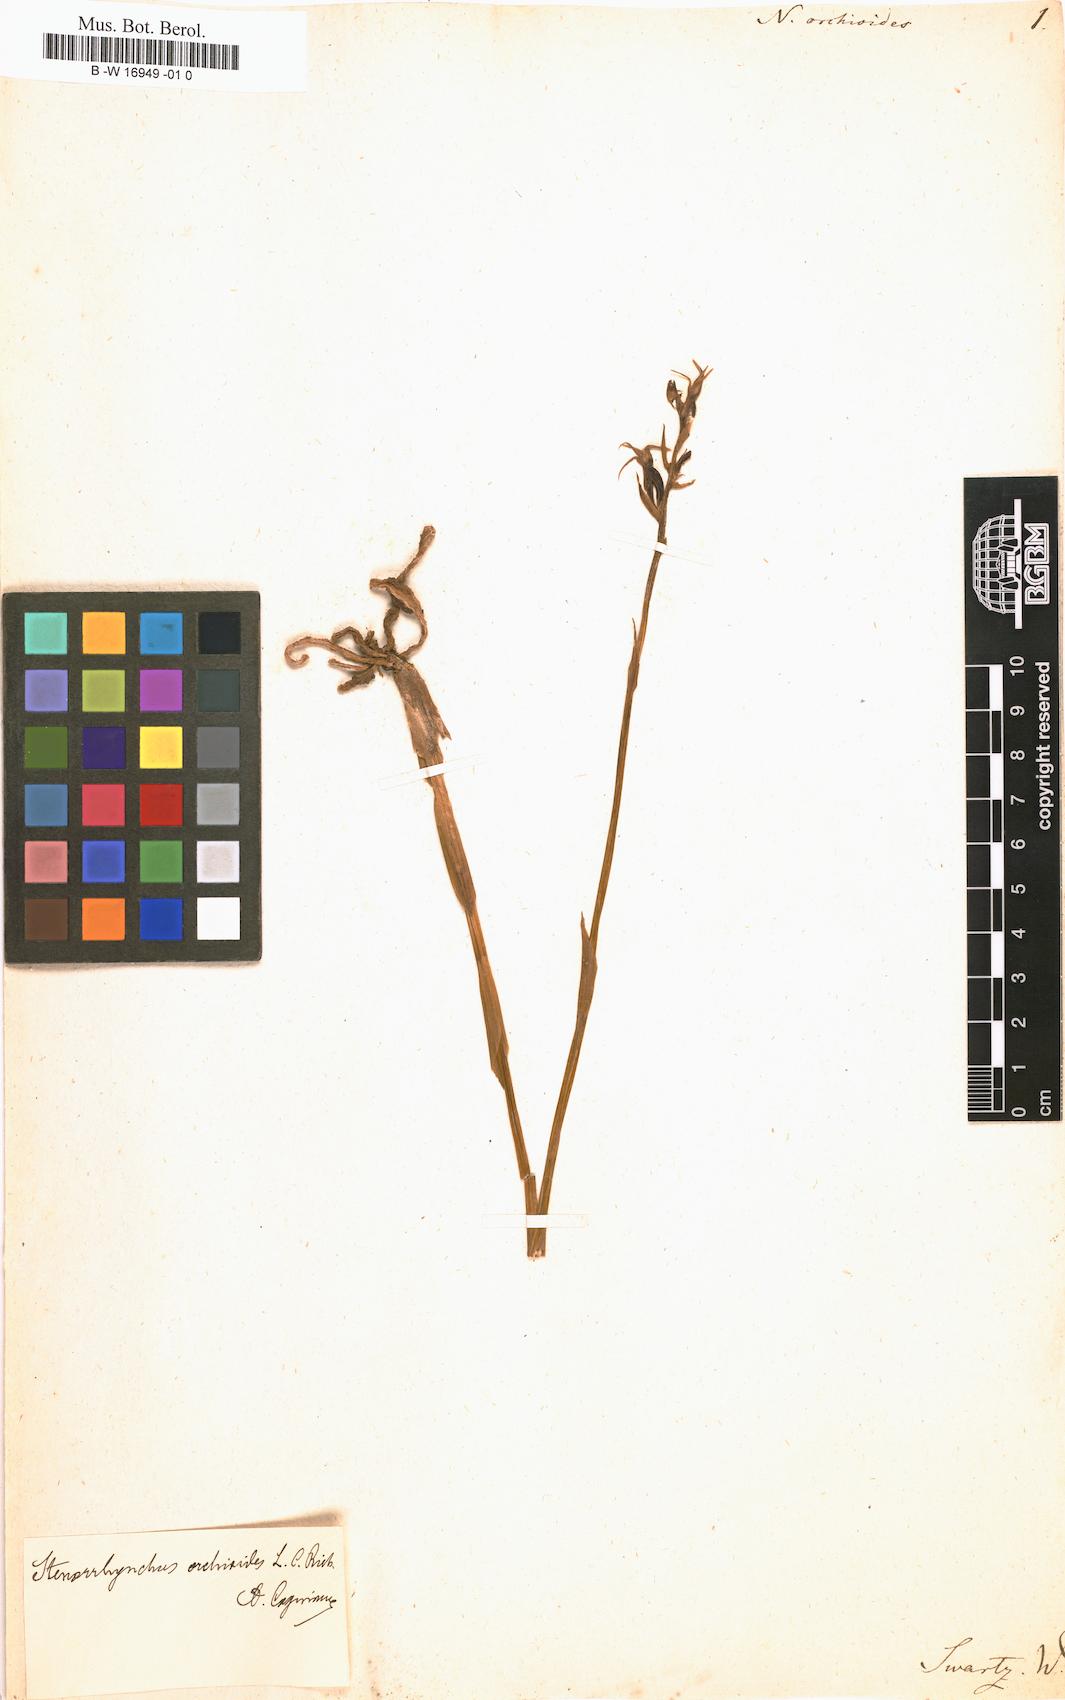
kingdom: Plantae
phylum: Tracheophyta
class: Liliopsida
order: Asparagales
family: Orchidaceae
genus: Sacoila
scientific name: Sacoila lanceolata
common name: Leafless beaked ladiestresses
